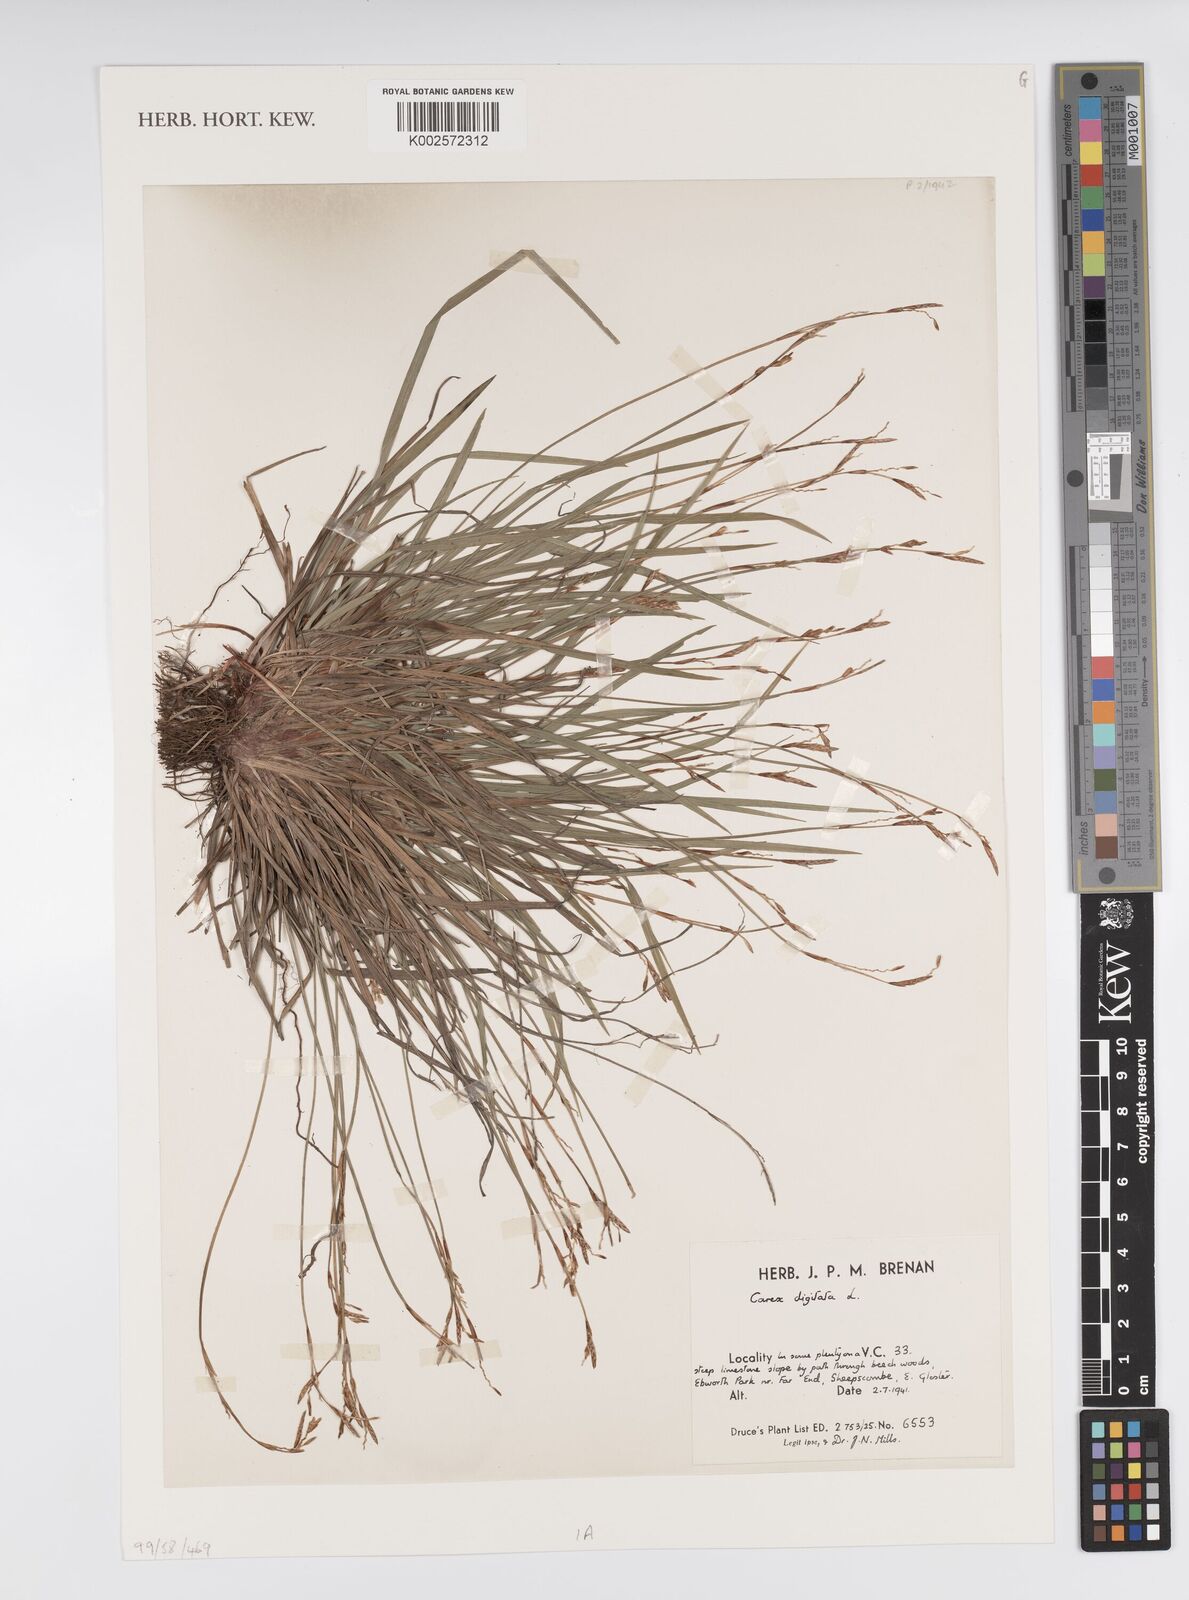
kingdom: Plantae
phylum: Tracheophyta
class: Liliopsida
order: Poales
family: Cyperaceae
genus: Carex
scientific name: Carex digitata
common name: Fingered sedge
